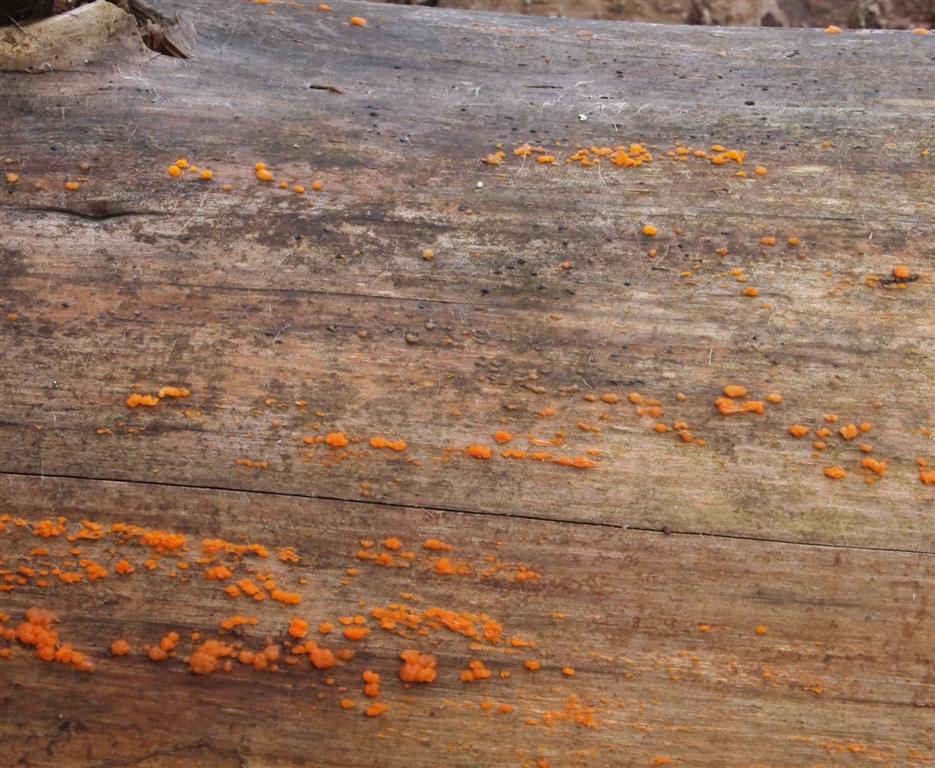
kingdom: Fungi
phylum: Basidiomycota
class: Dacrymycetes
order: Dacrymycetales
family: Dacrymycetaceae
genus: Dacrymyces
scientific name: Dacrymyces stillatus
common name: almindelig tåresvamp
